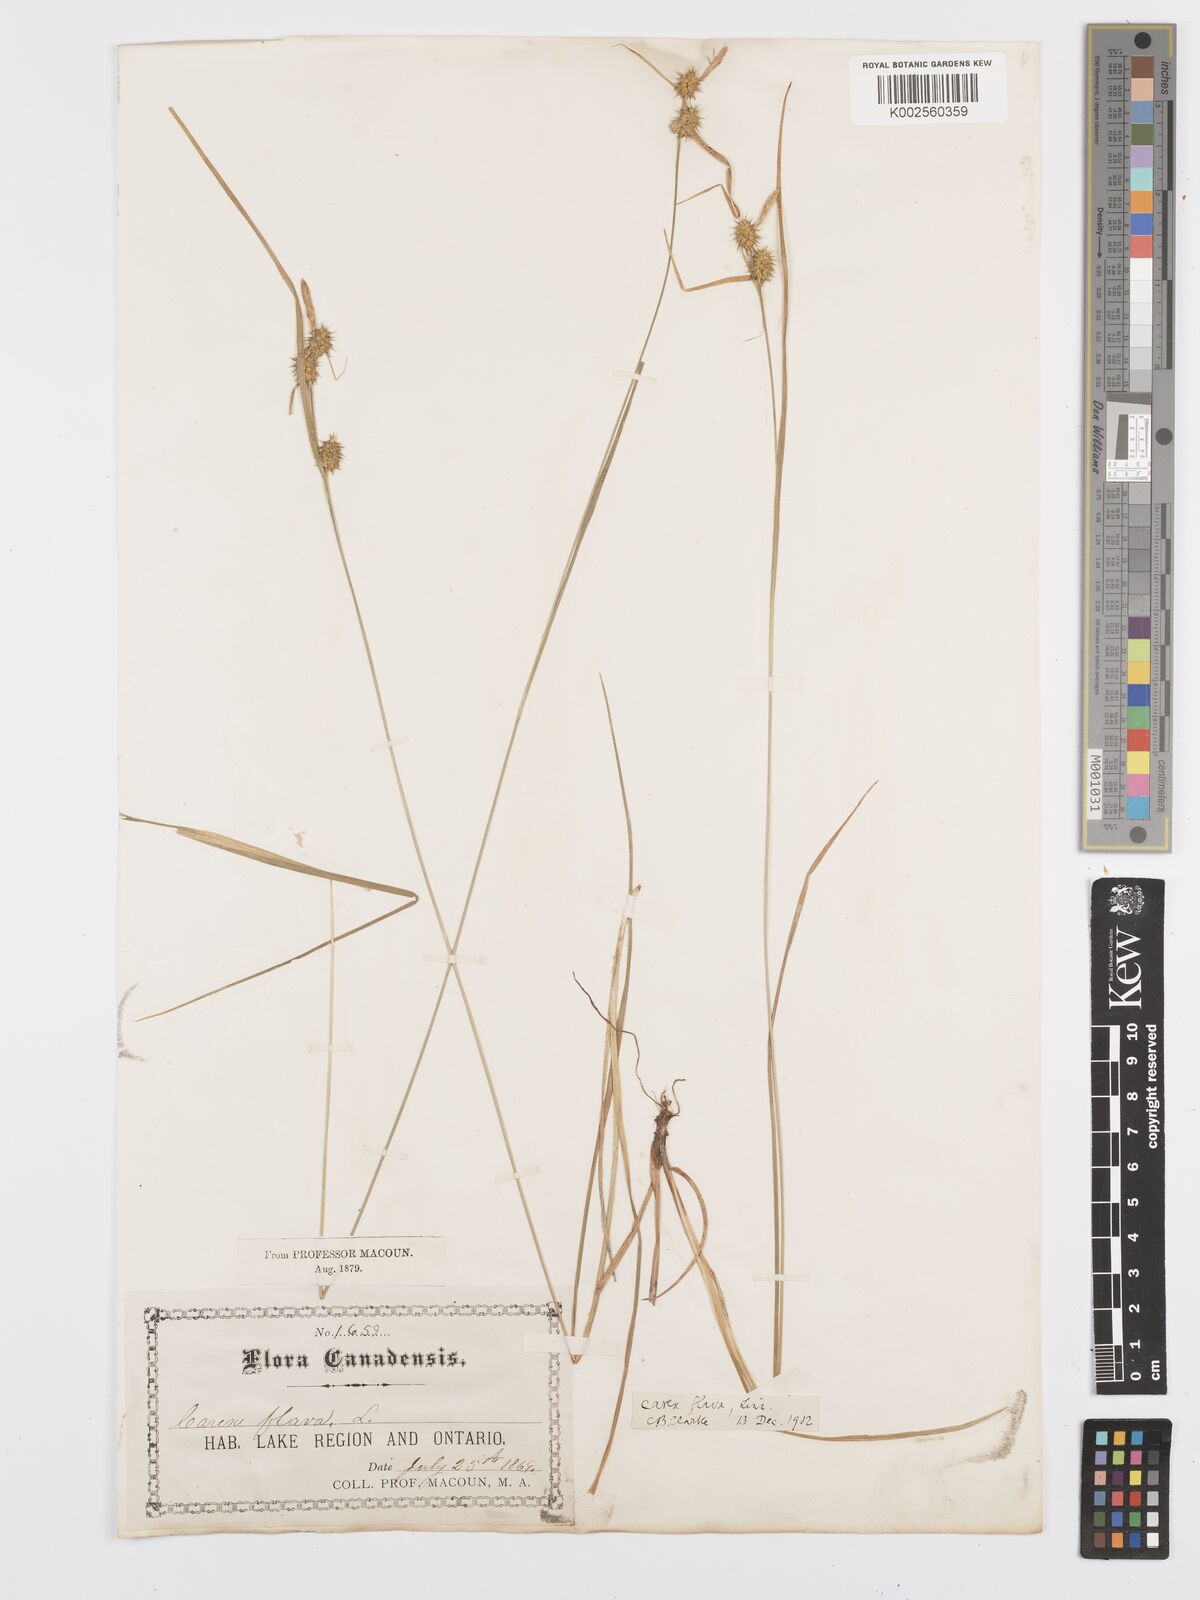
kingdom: Plantae
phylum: Tracheophyta
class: Liliopsida
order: Poales
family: Cyperaceae
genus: Carex
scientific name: Carex lepidocarpa
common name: Long-stalked yellow-sedge
